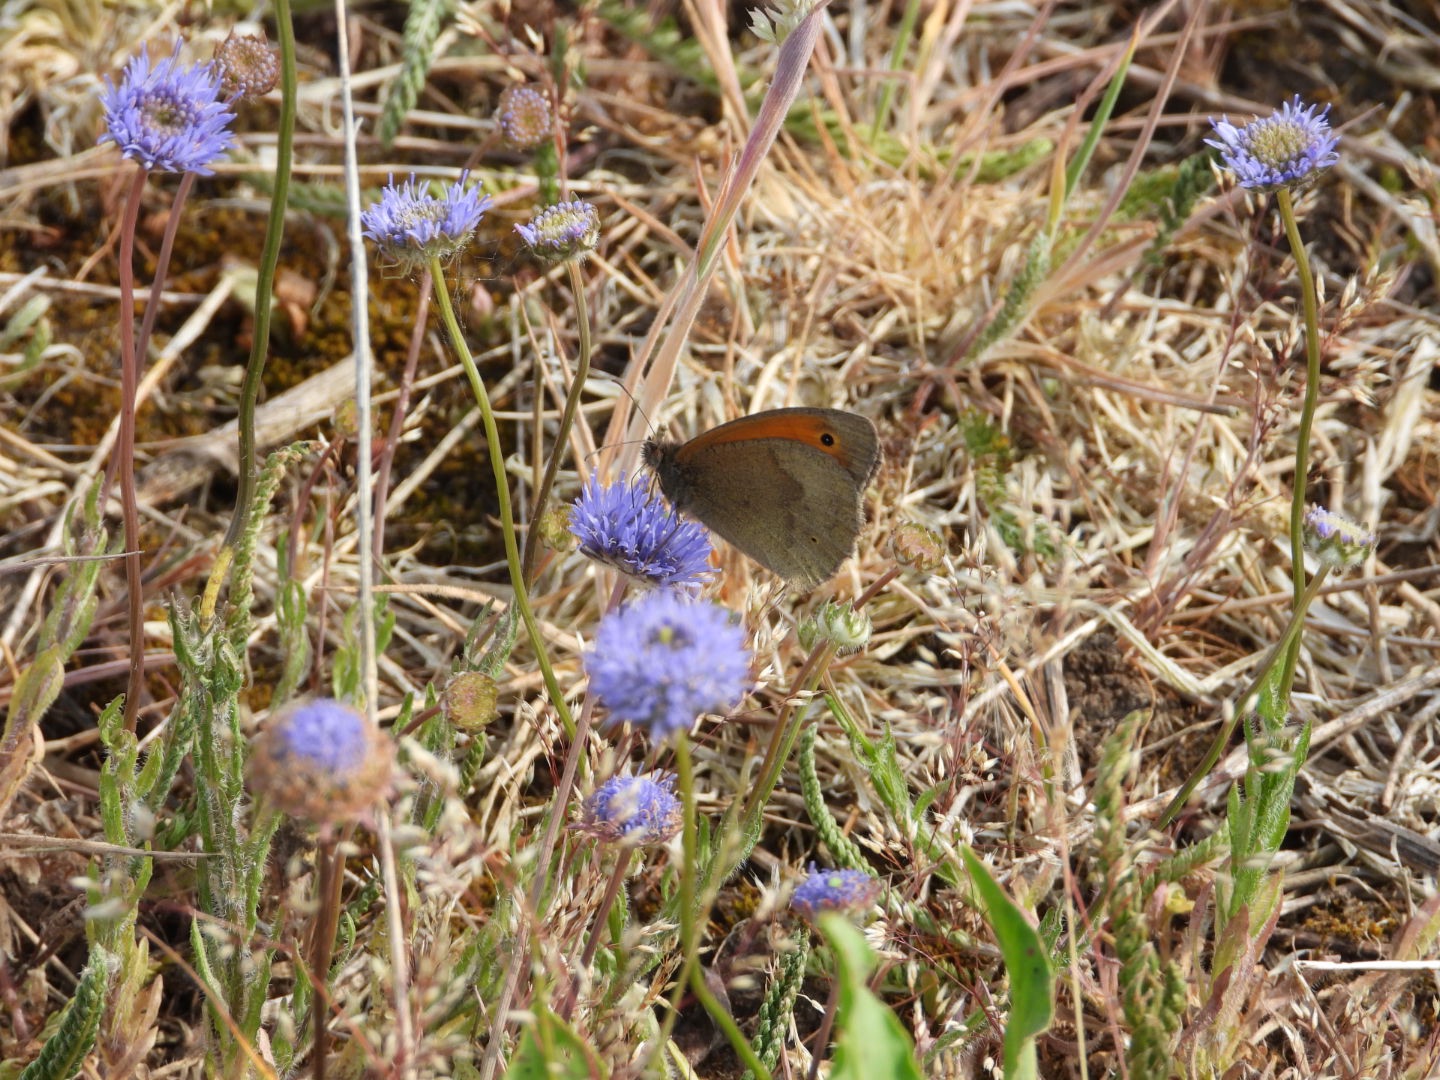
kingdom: Animalia
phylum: Arthropoda
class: Insecta
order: Lepidoptera
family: Nymphalidae
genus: Maniola
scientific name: Maniola jurtina
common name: Græsrandøje
